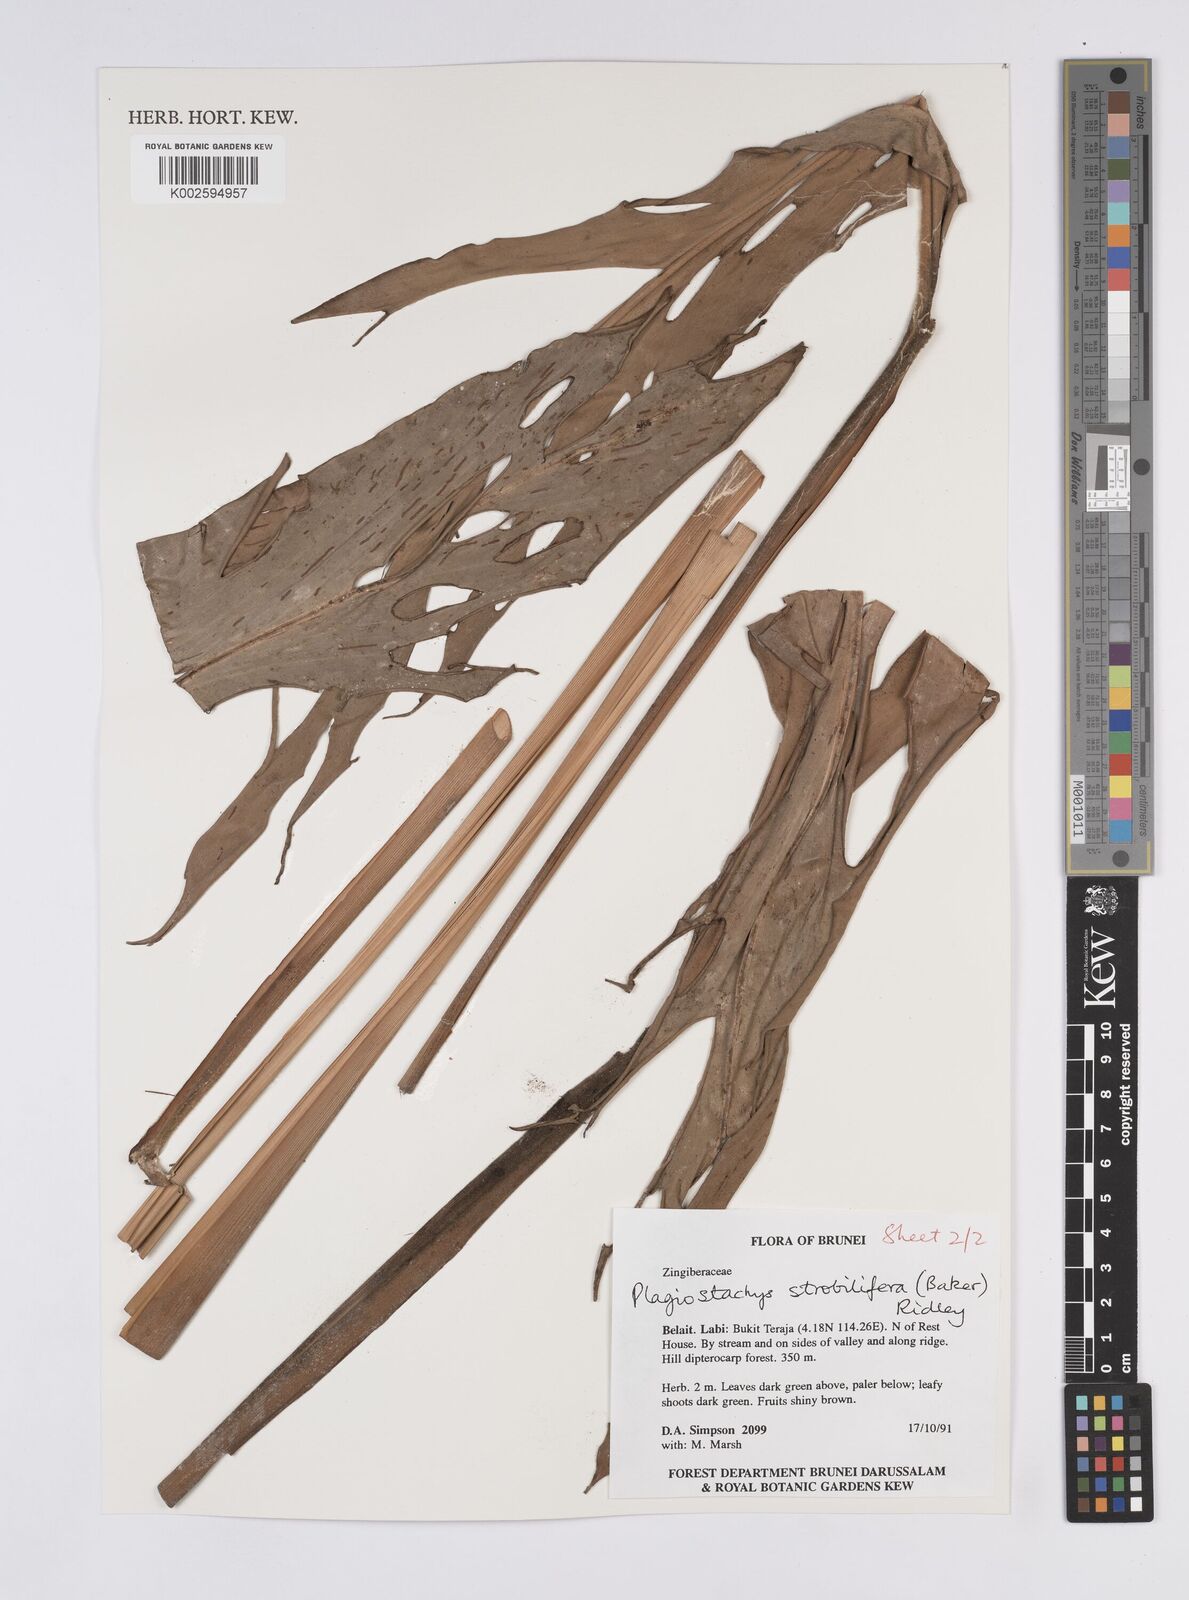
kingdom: Plantae
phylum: Tracheophyta
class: Liliopsida
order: Zingiberales
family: Zingiberaceae
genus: Plagiostachys
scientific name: Plagiostachys strobilifera
